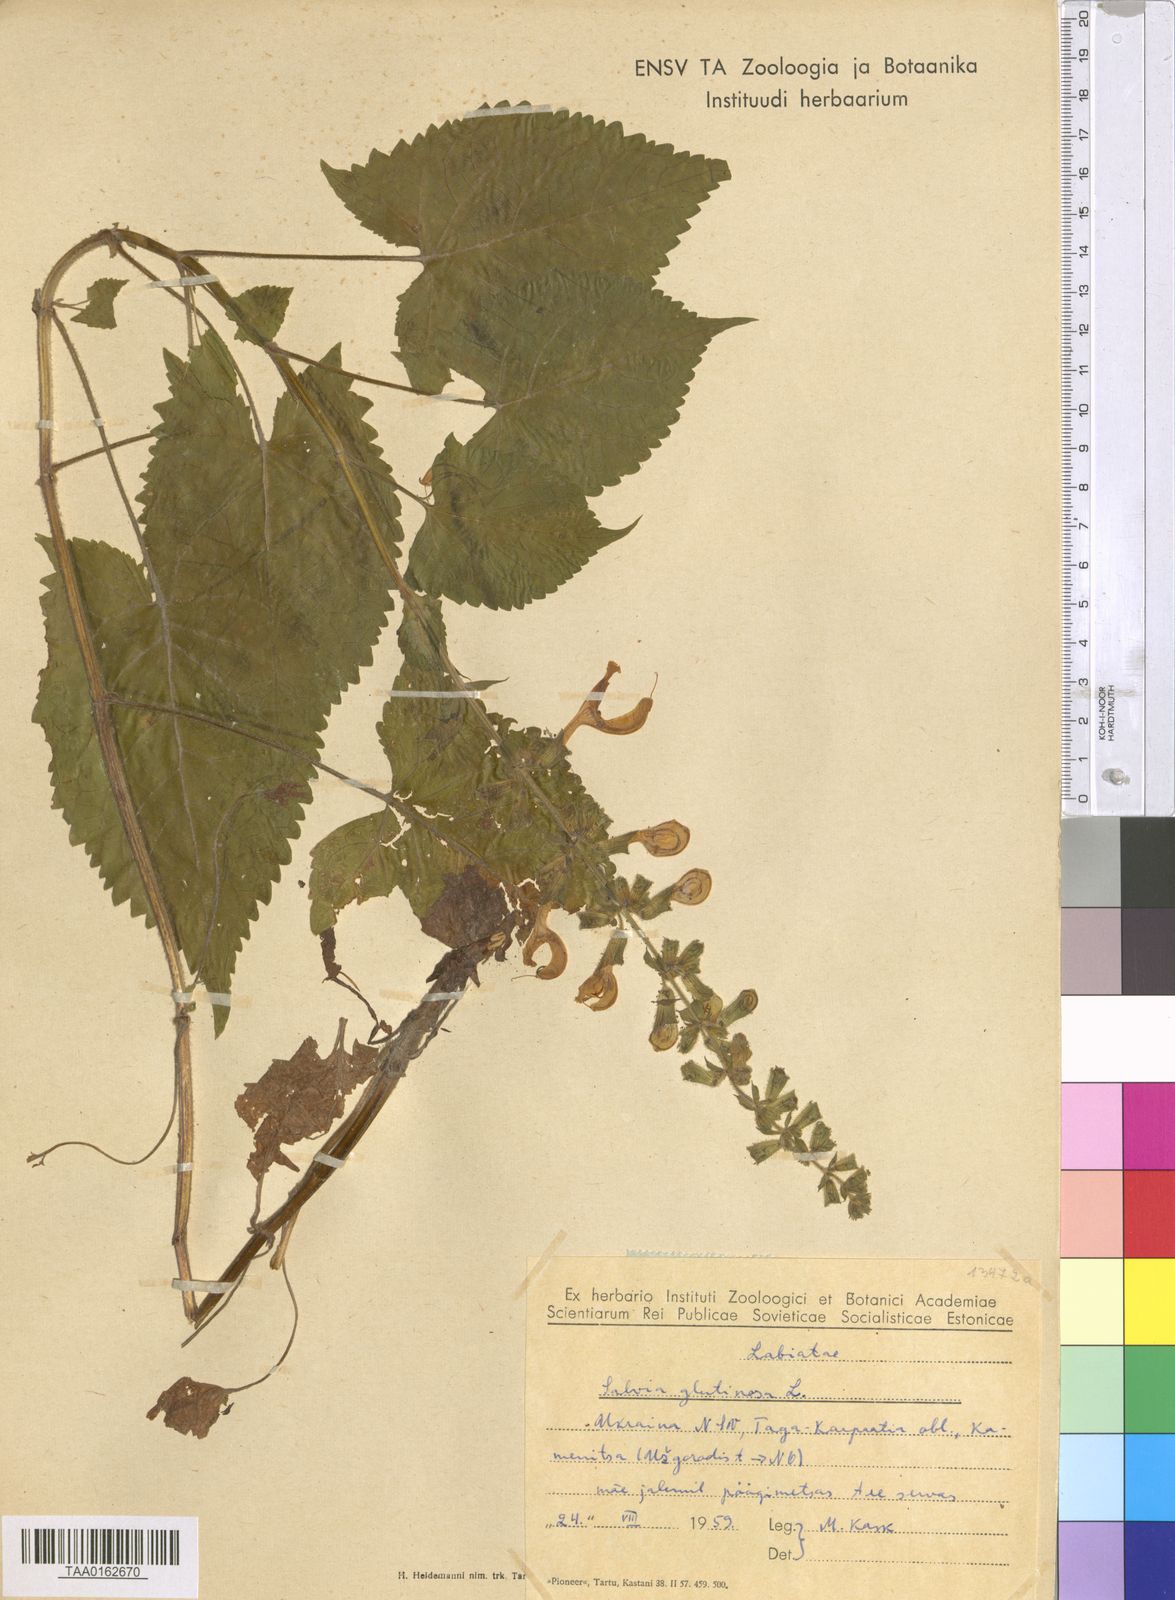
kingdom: Plantae
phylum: Tracheophyta
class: Magnoliopsida
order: Lamiales
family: Lamiaceae
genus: Salvia
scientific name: Salvia glutinosa
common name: Sticky clary
